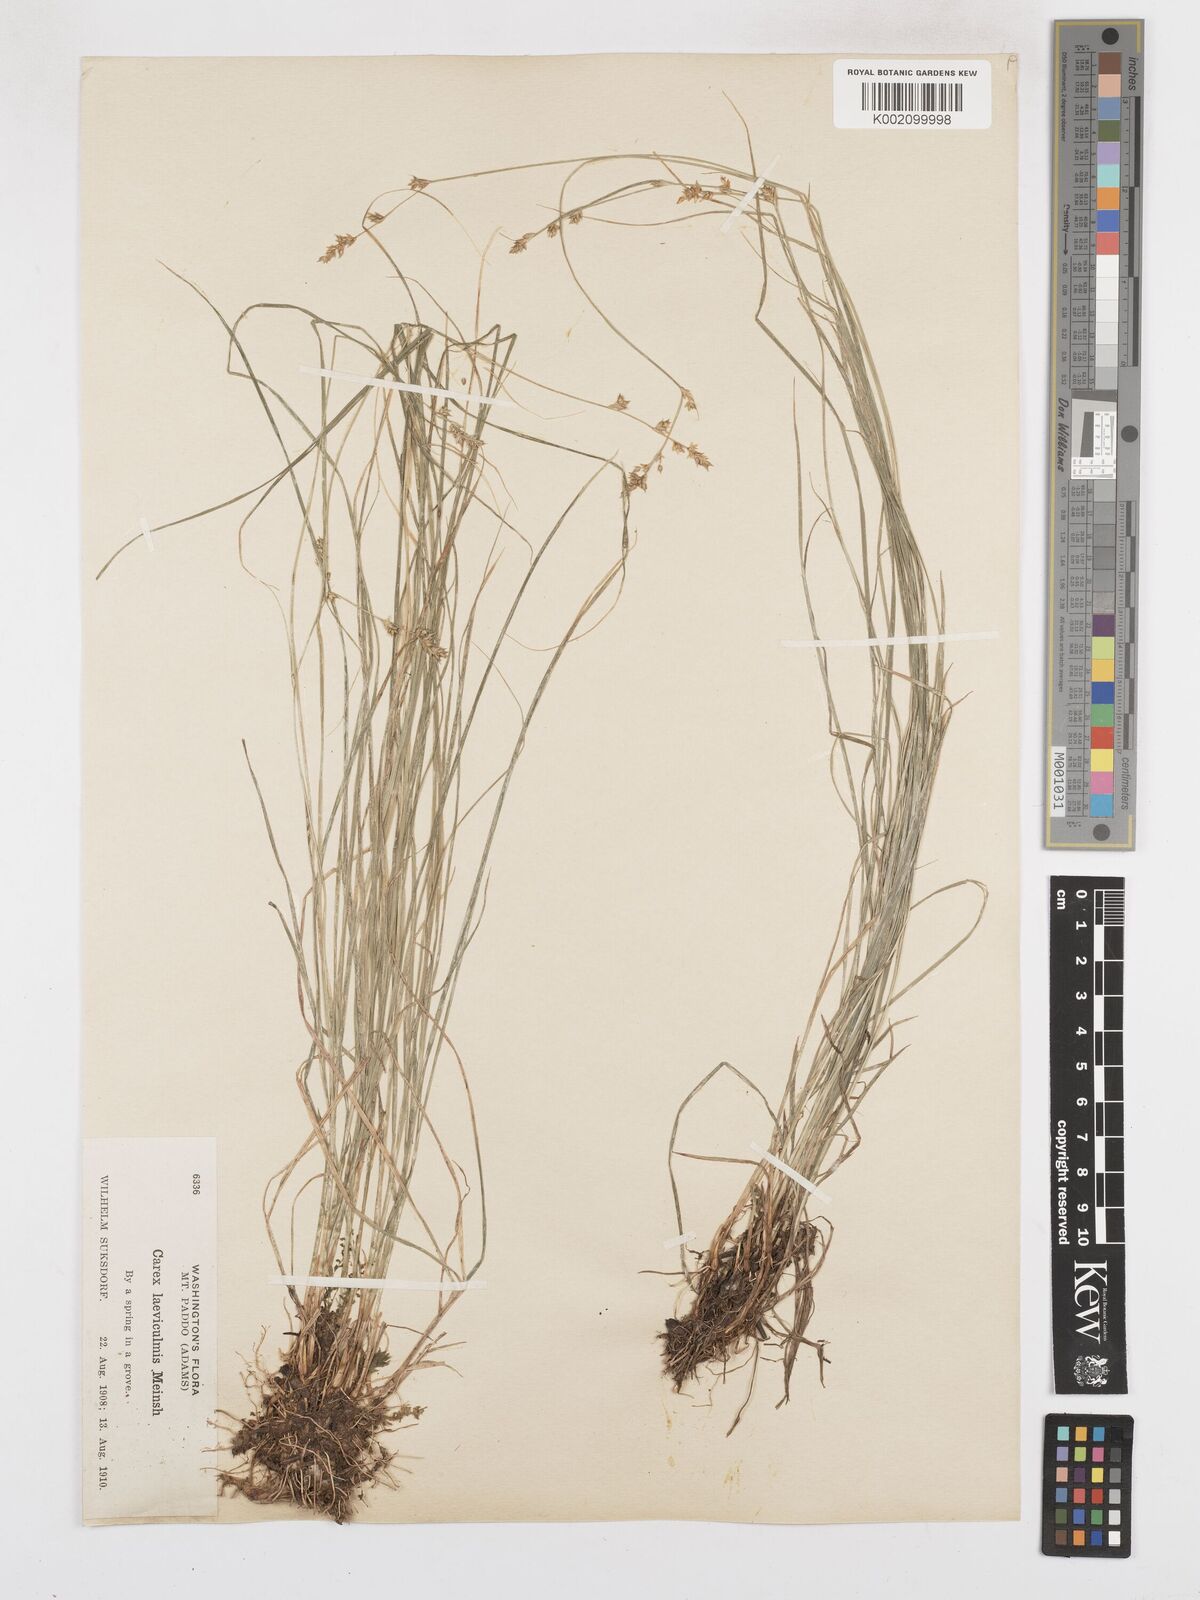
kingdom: Plantae
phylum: Tracheophyta
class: Liliopsida
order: Poales
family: Cyperaceae
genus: Carex
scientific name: Carex laeviculmis
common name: Smooth sedge
